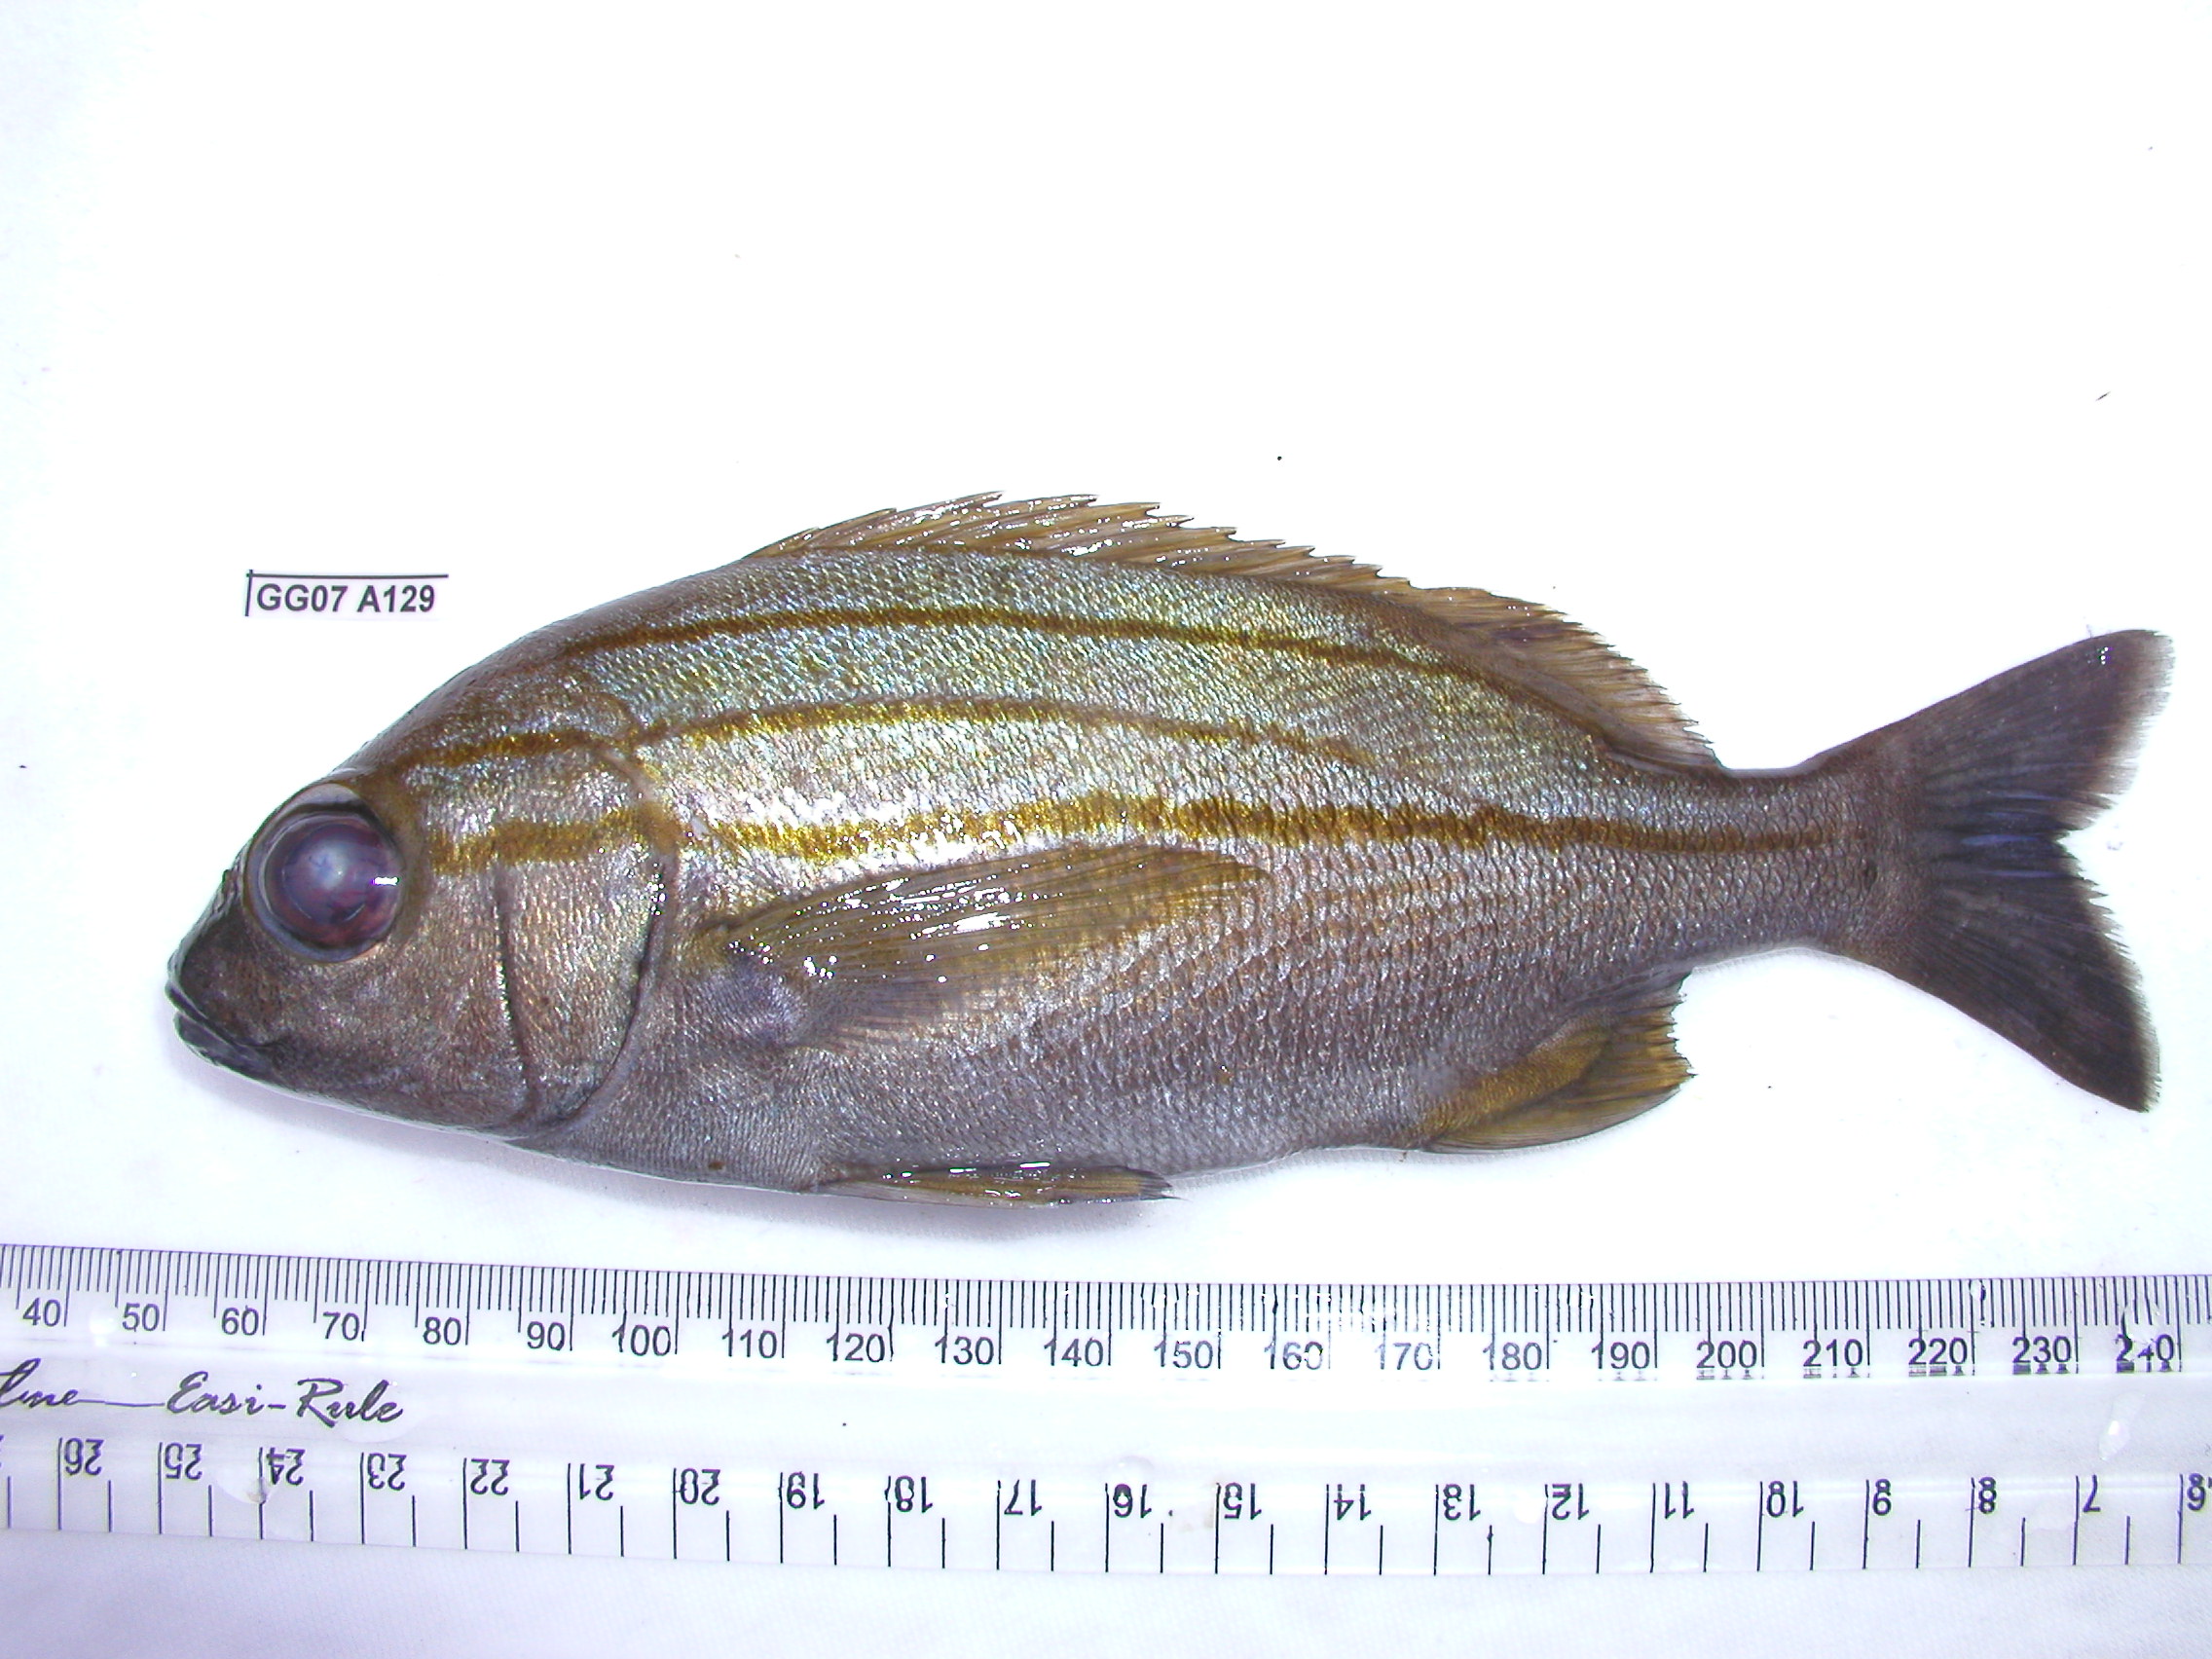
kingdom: Animalia
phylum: Chordata
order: Perciformes
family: Haemulidae
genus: Pomadasys
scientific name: Pomadasys striatus
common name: Striped grunter
